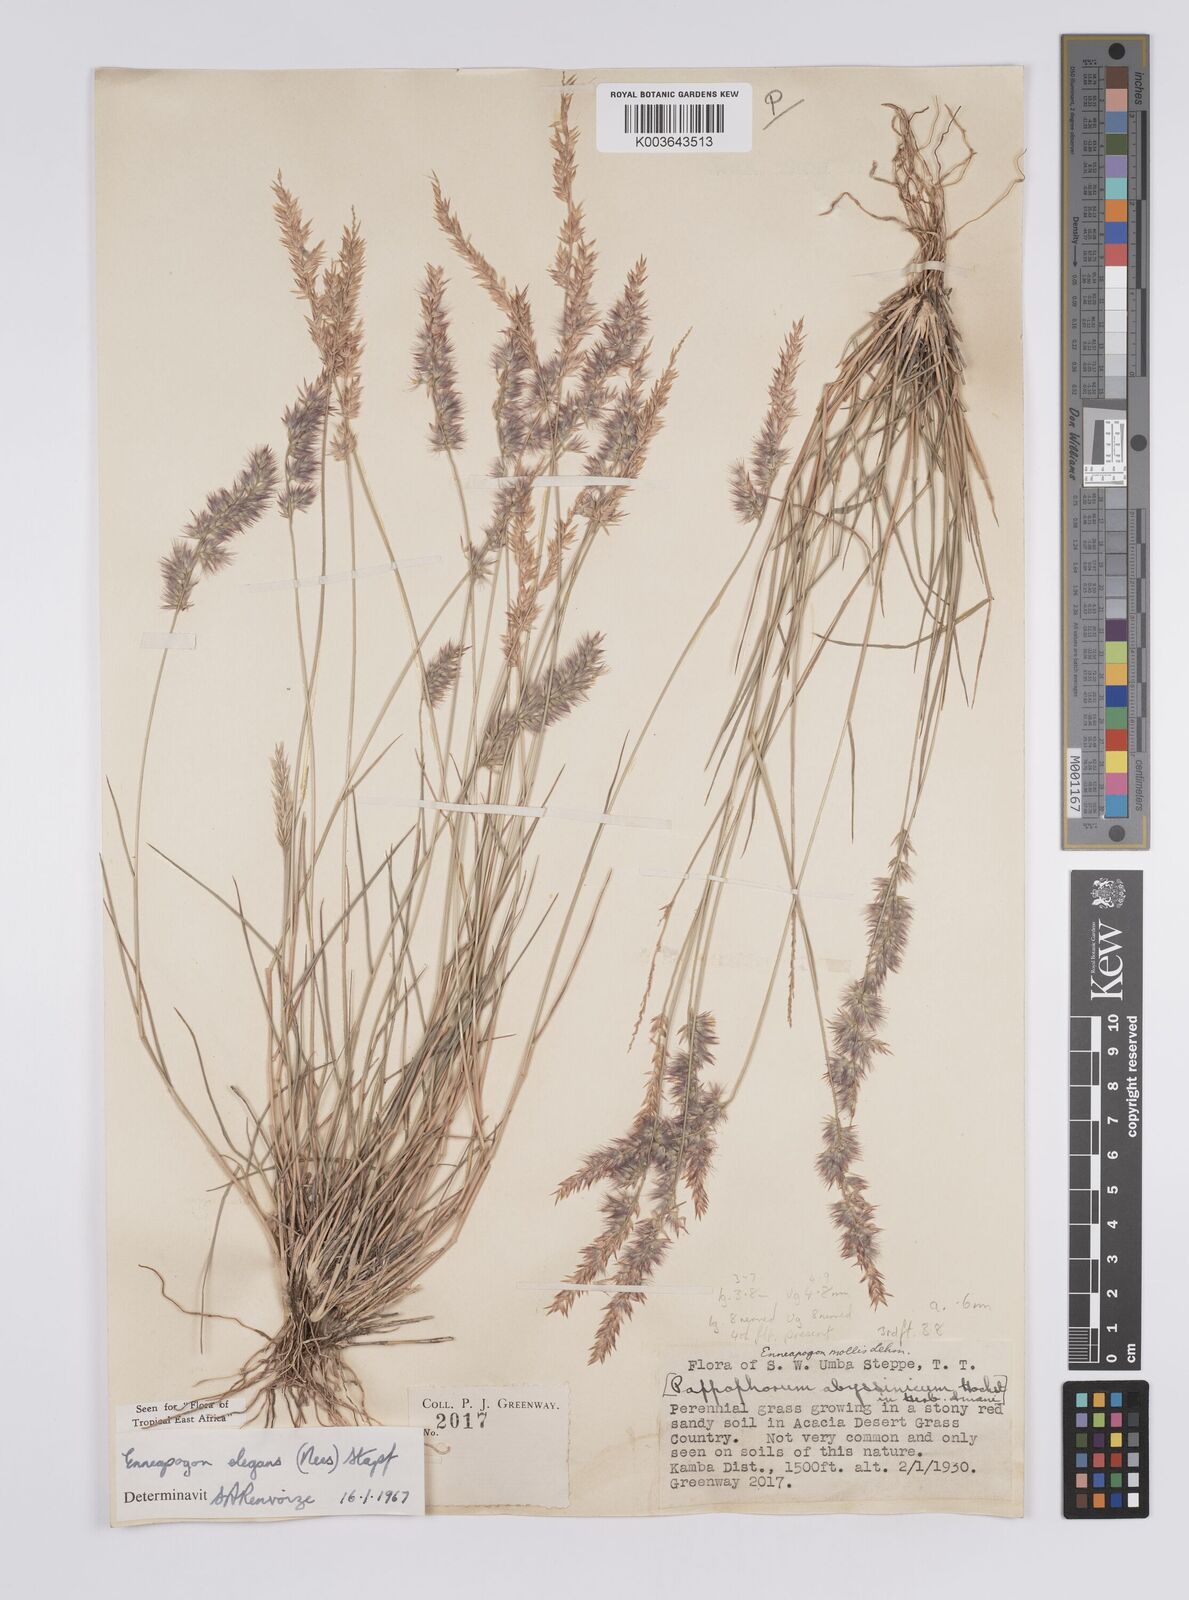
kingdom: Plantae
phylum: Tracheophyta
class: Liliopsida
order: Poales
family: Poaceae
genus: Enneapogon
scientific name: Enneapogon persicus
